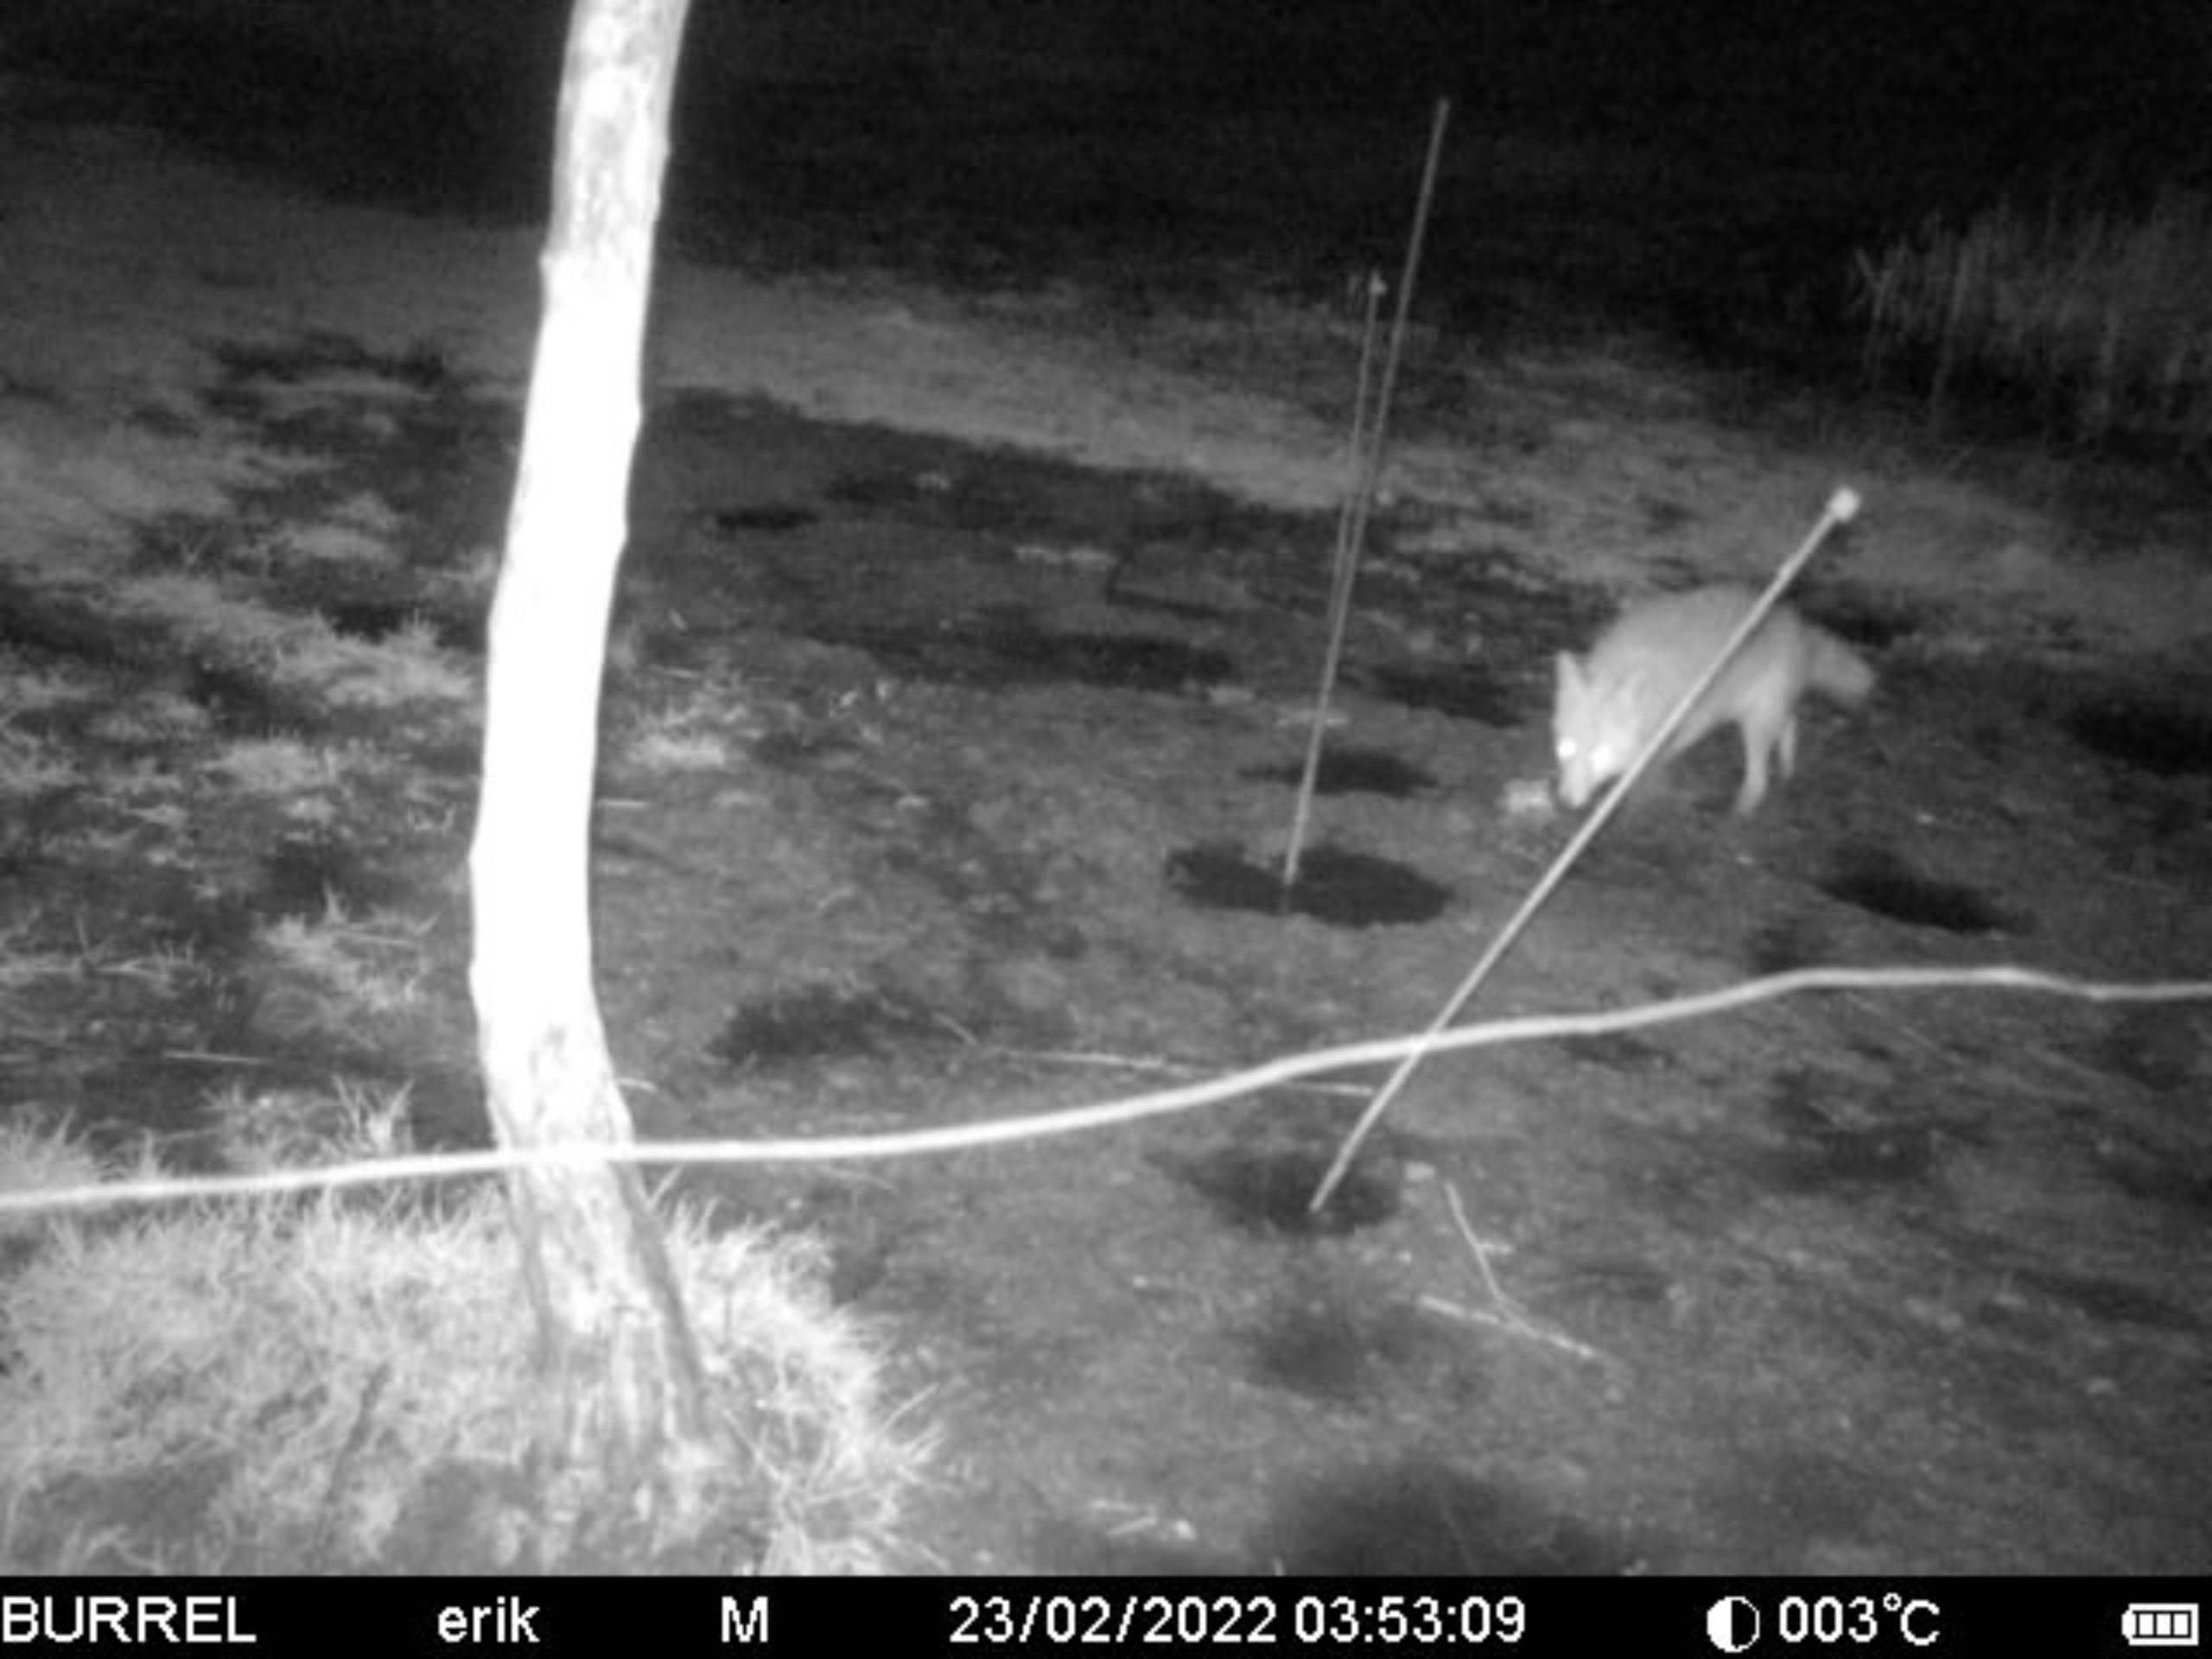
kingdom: Animalia
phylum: Chordata
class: Mammalia
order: Carnivora
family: Canidae
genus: Vulpes
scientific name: Vulpes vulpes
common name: Ræv
